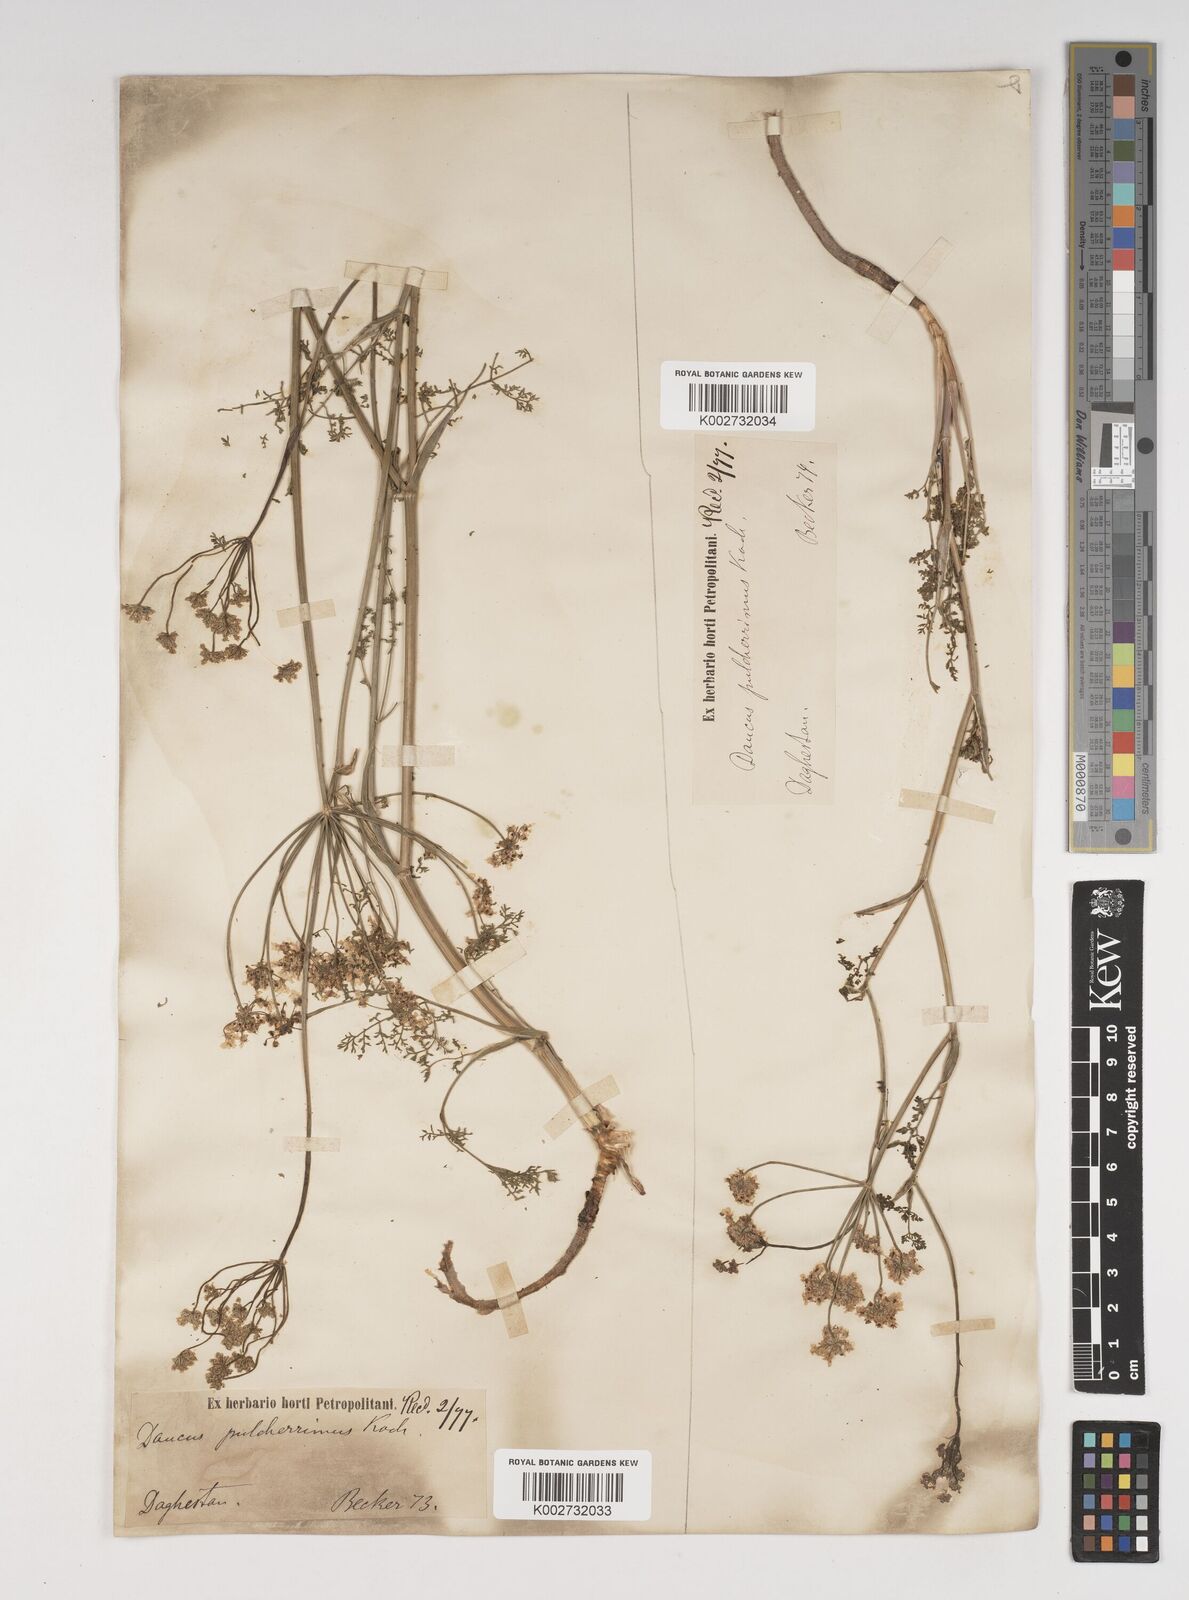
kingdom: Plantae
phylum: Tracheophyta
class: Magnoliopsida
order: Apiales
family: Apiaceae
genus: Astrodaucus
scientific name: Astrodaucus
